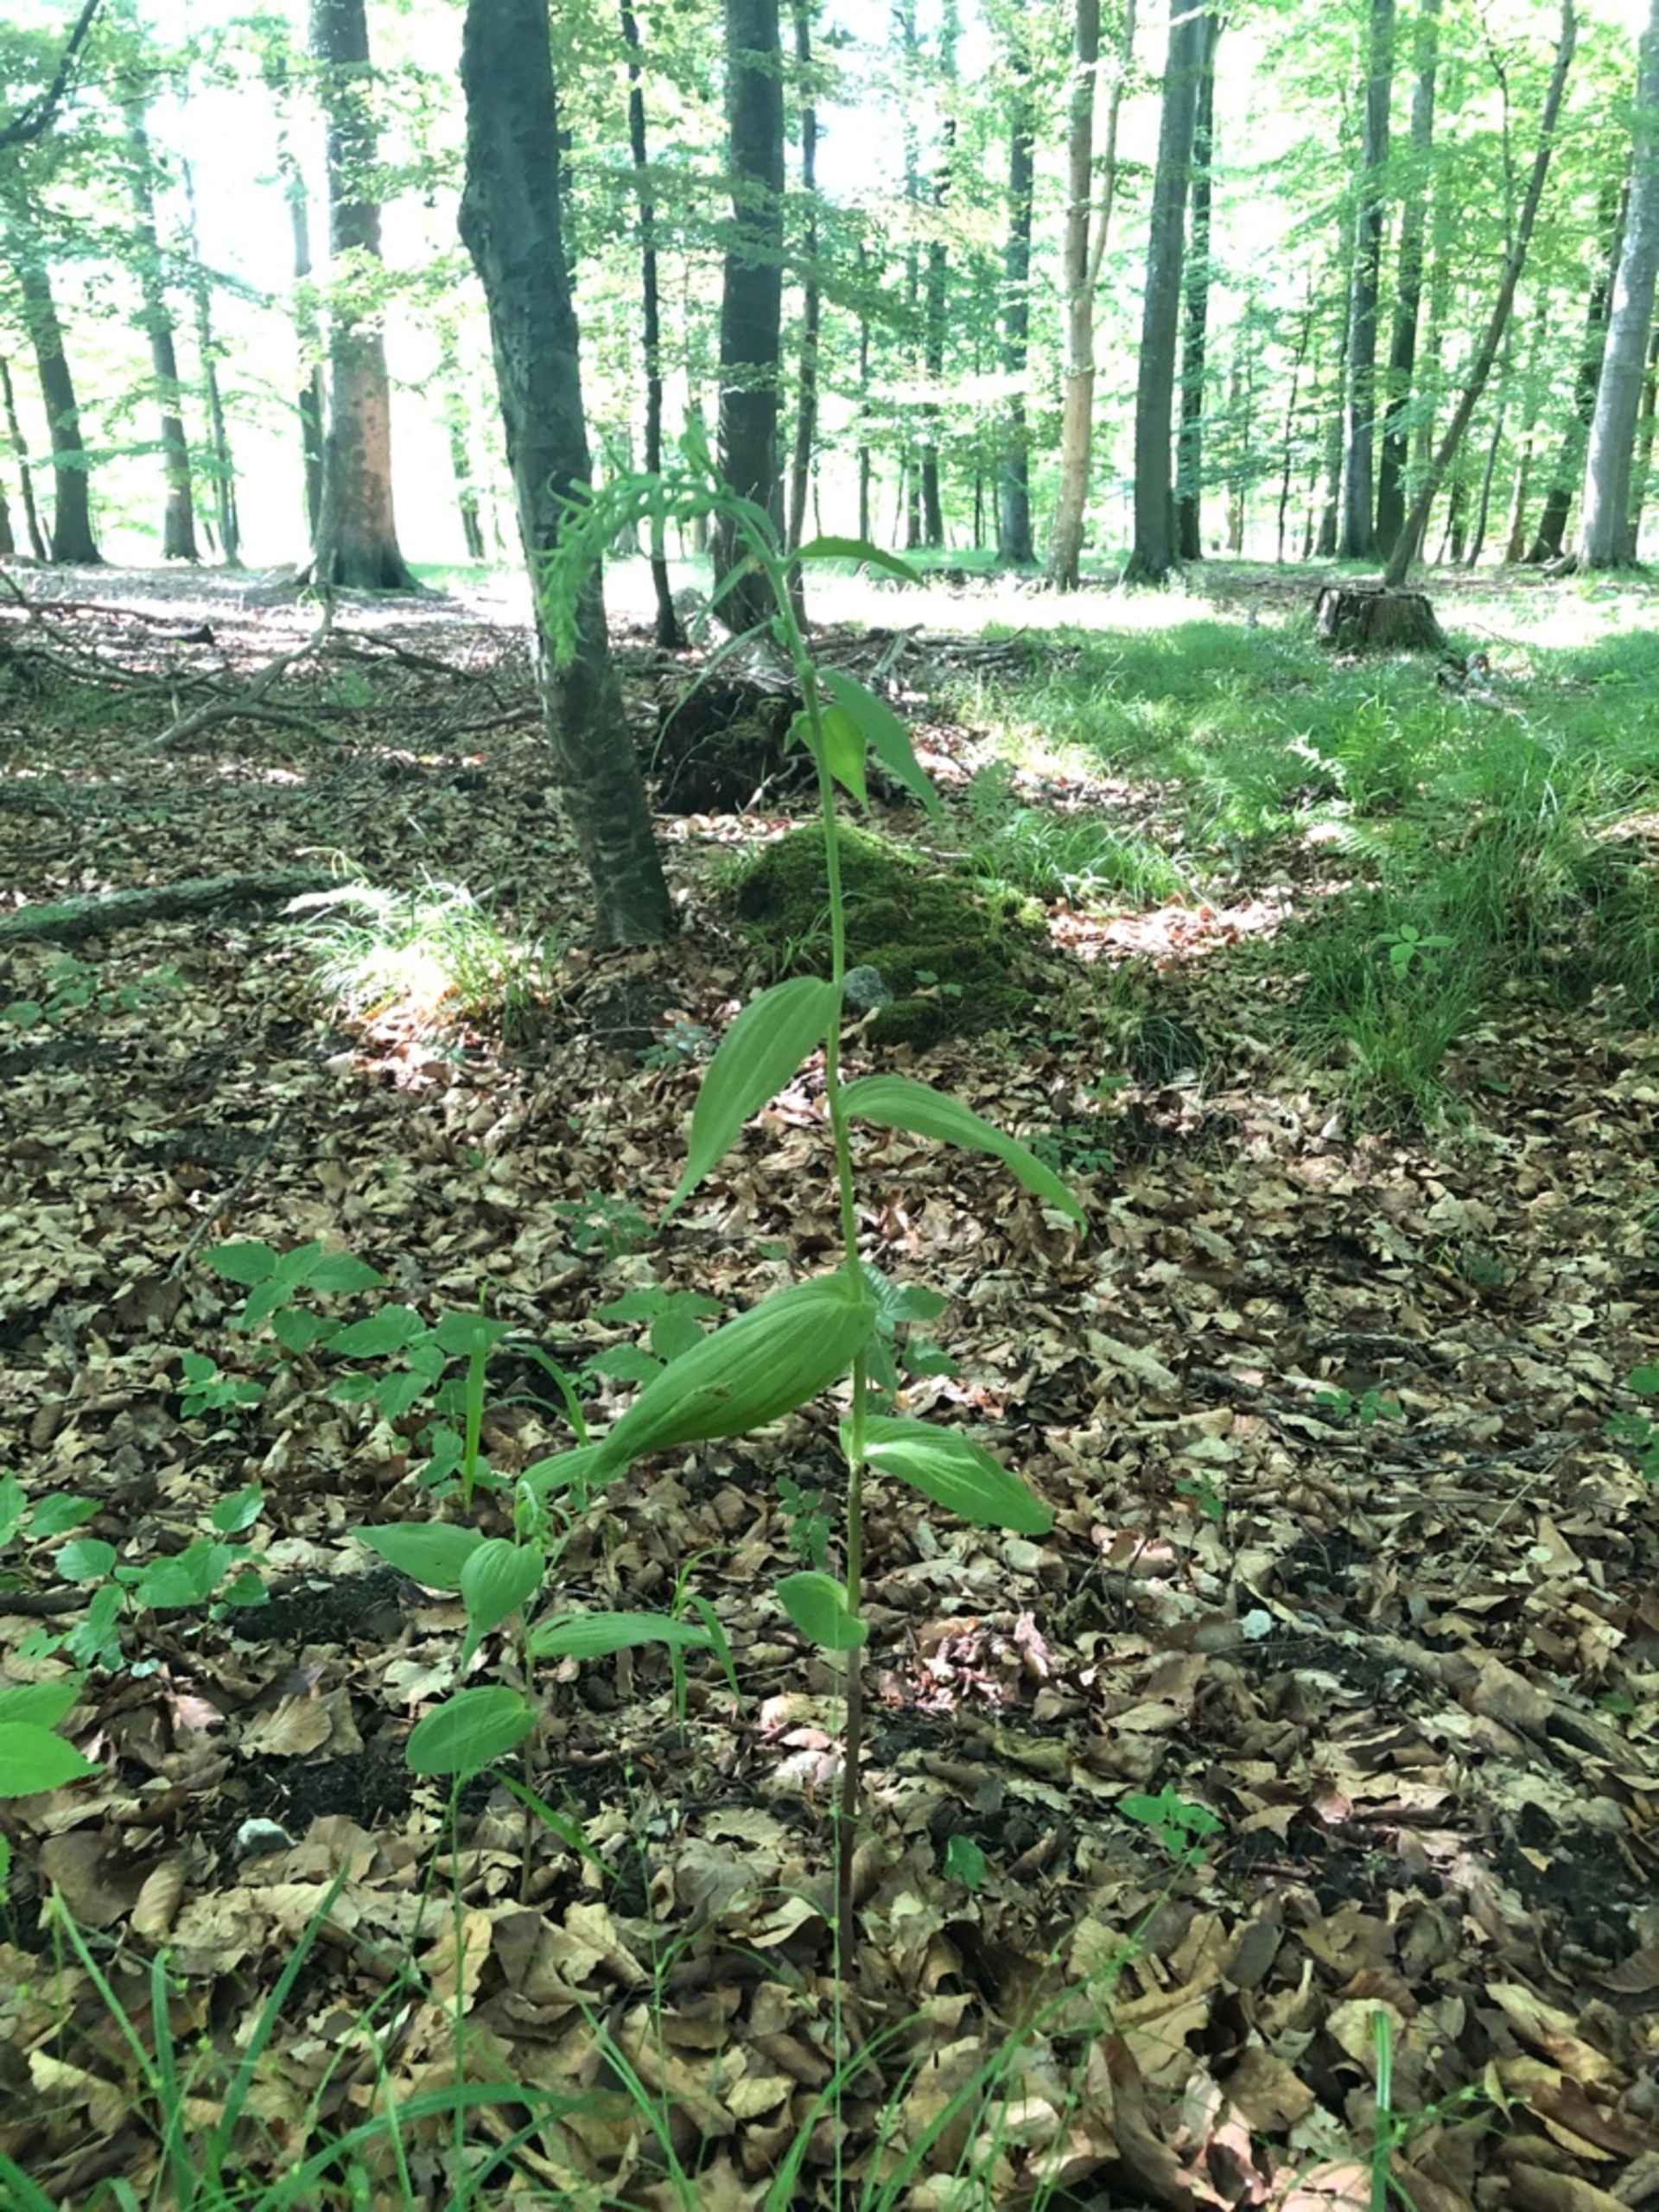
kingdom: Plantae
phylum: Tracheophyta
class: Liliopsida
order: Asparagales
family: Orchidaceae
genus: Epipactis
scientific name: Epipactis helleborine
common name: Skov-hullæbe
